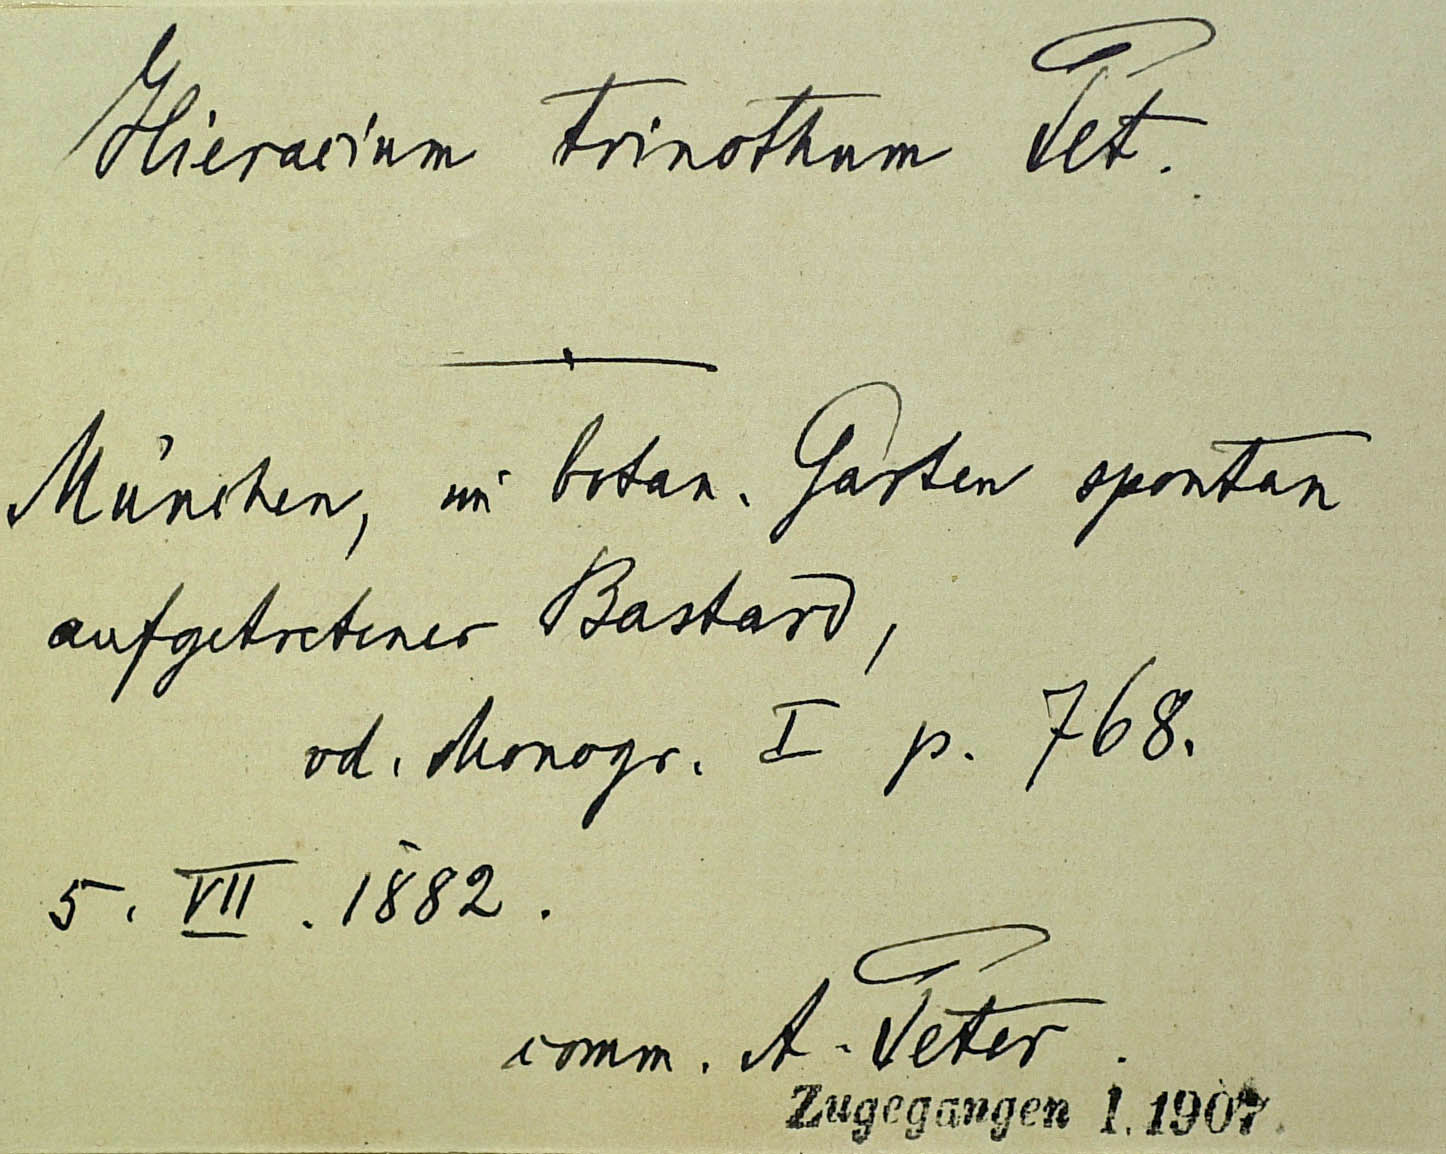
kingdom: Plantae
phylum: Tracheophyta
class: Magnoliopsida
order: Asterales
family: Asteraceae
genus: Hieracium
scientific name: Hieracium trinothum
